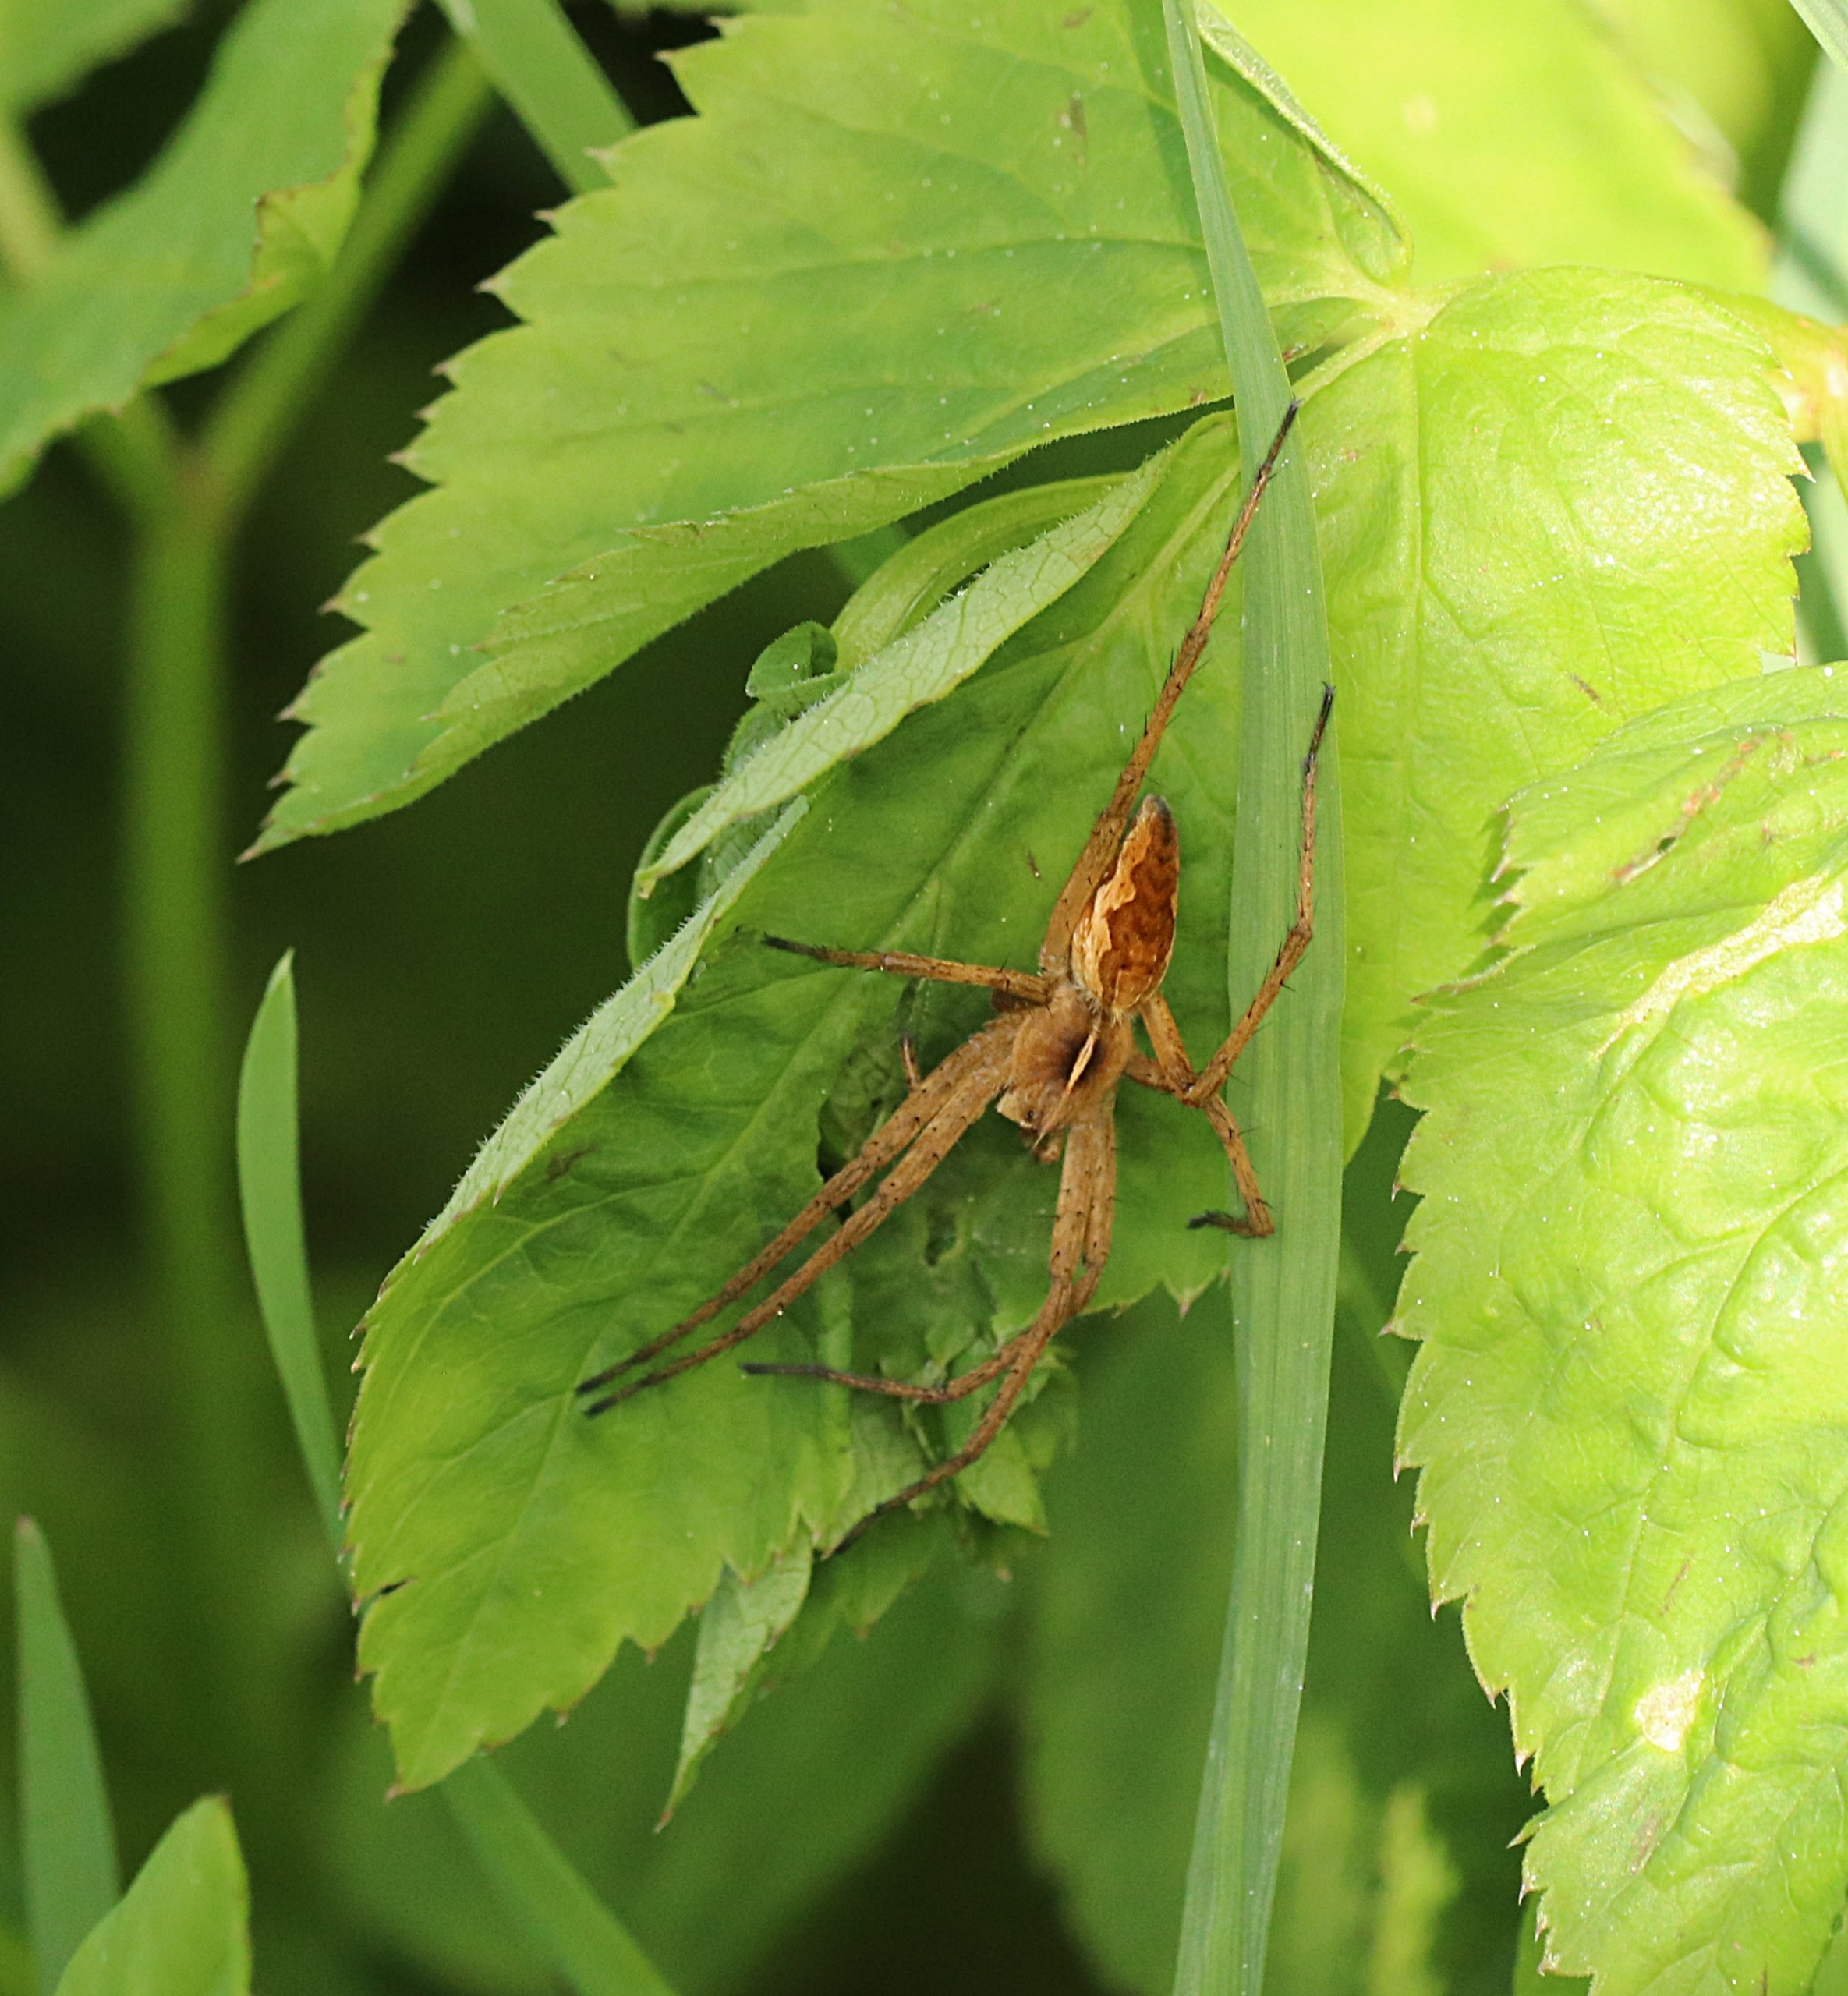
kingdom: Animalia
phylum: Arthropoda
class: Arachnida
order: Araneae
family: Pisauridae
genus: Pisaura
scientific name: Pisaura mirabilis
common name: Almindelig rovedderkop
